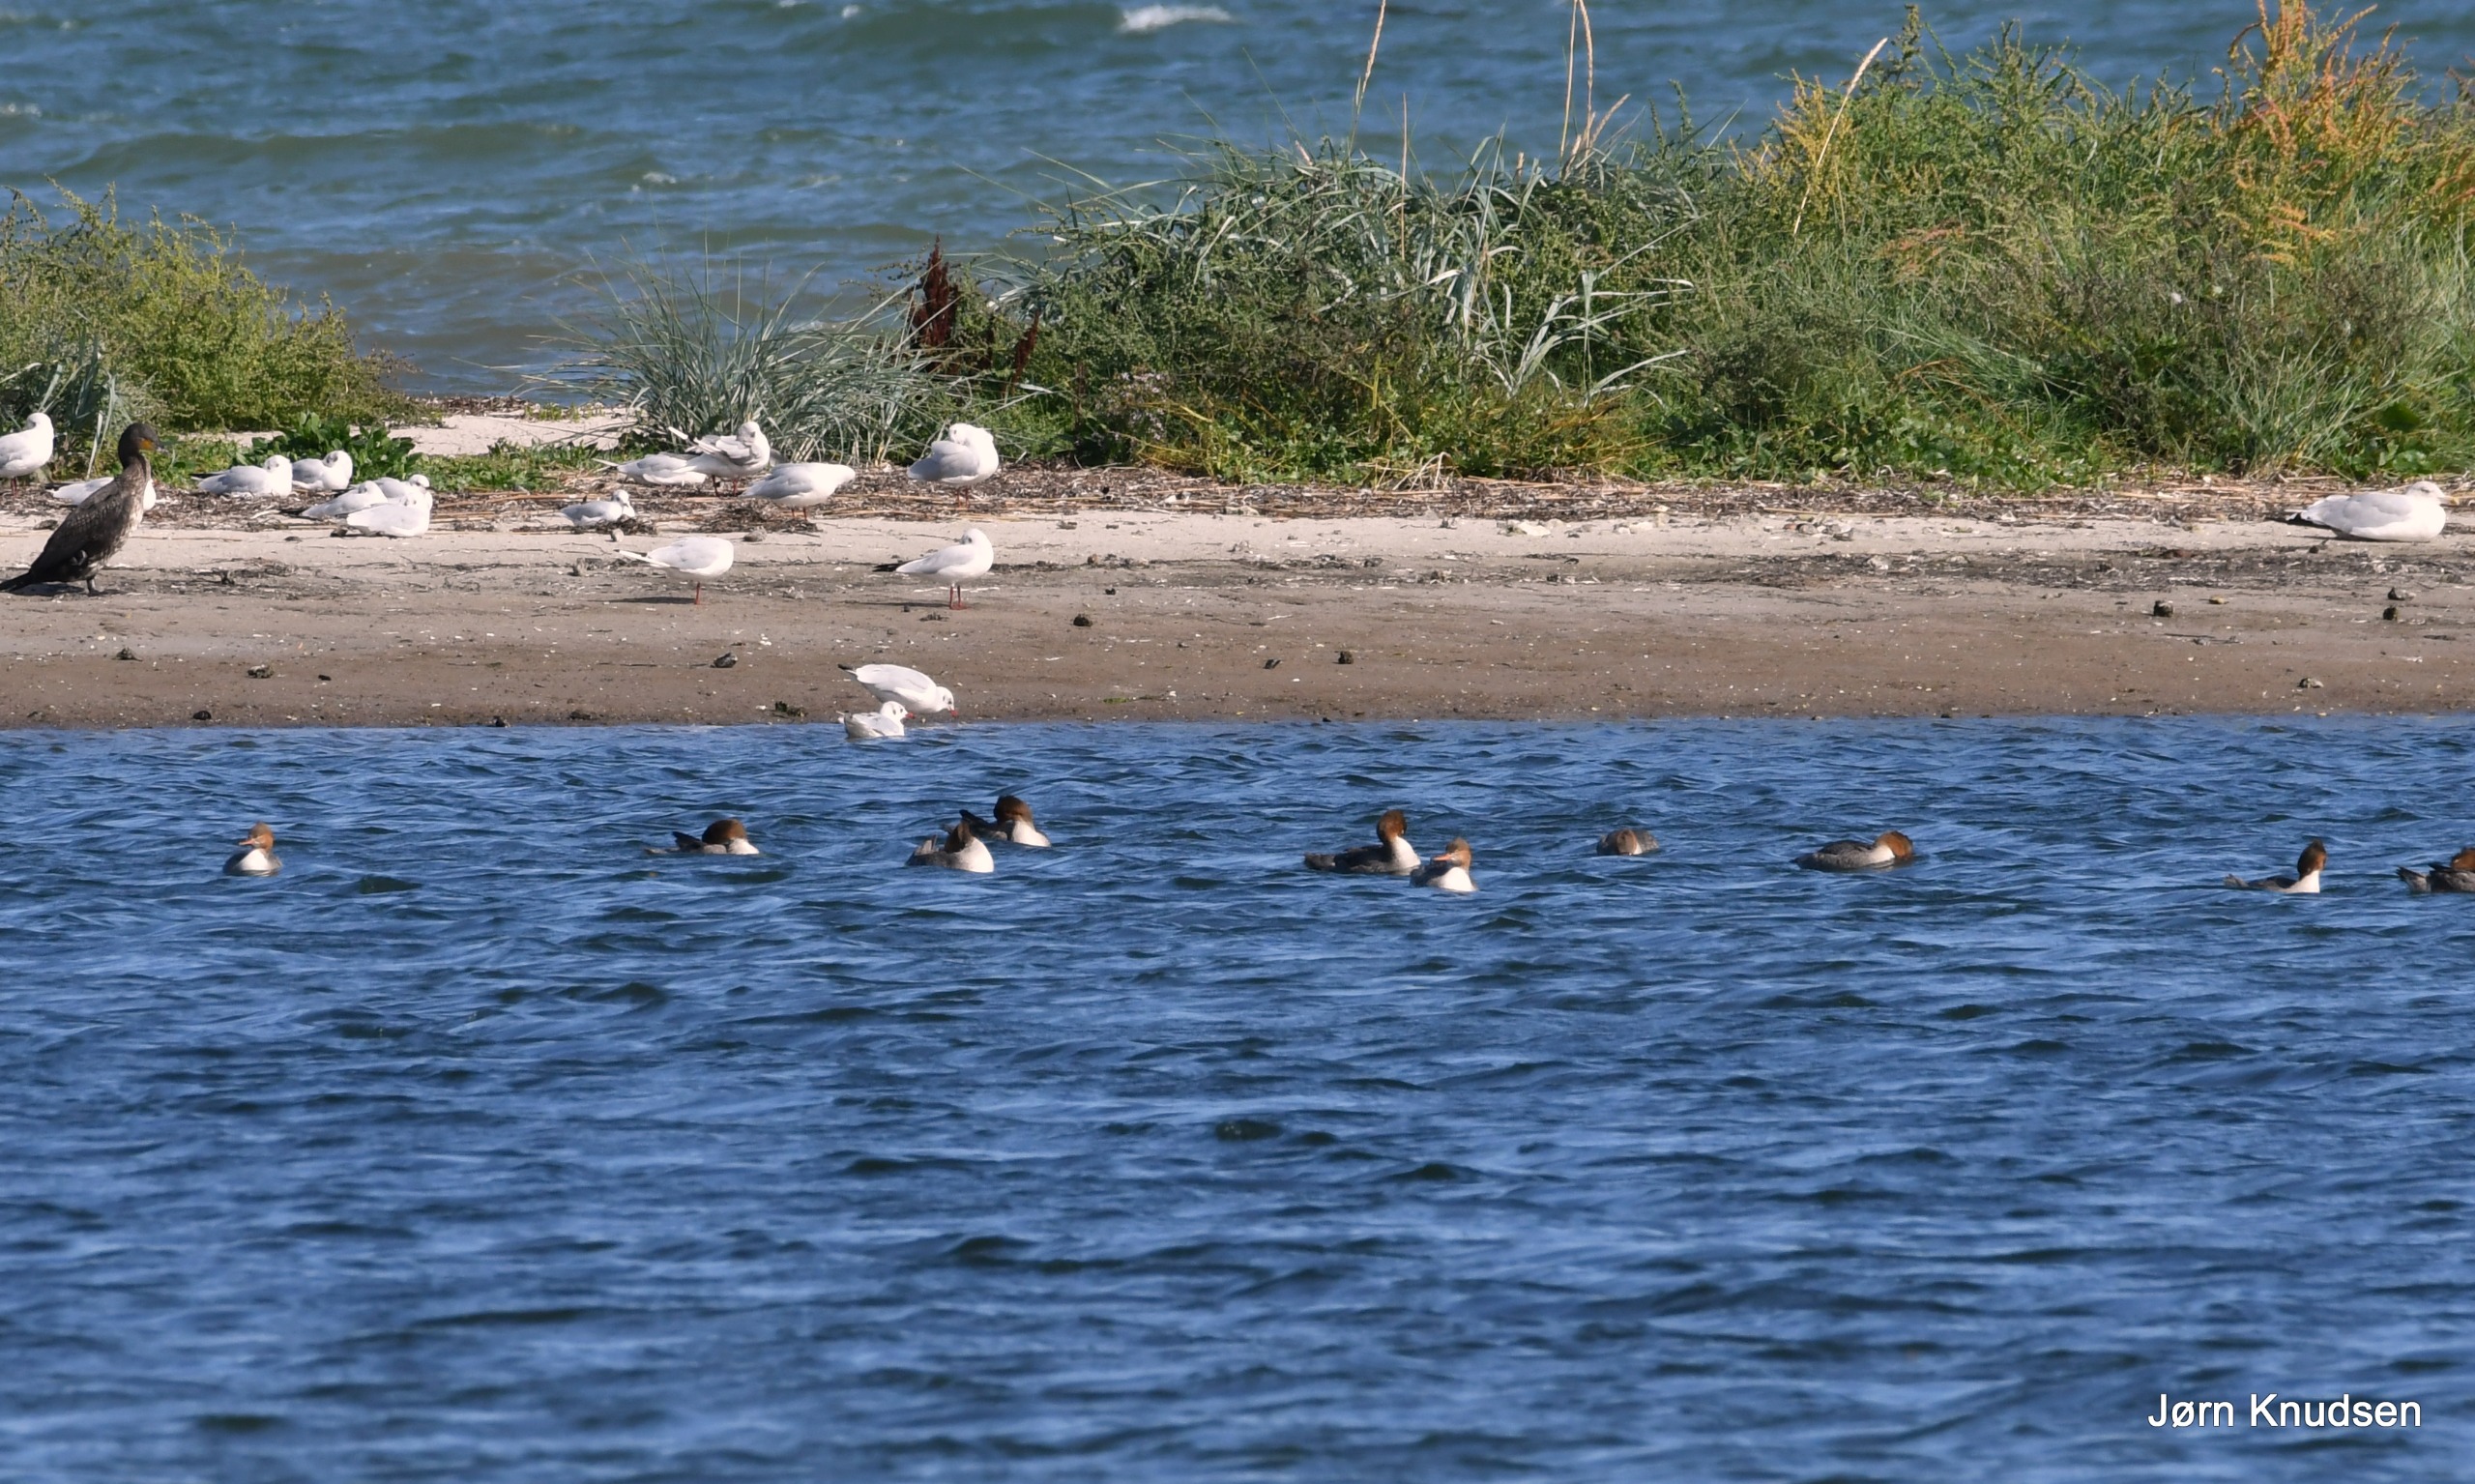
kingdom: Animalia
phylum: Chordata
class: Aves
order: Anseriformes
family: Anatidae
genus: Mergus
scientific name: Mergus merganser
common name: Stor skallesluger
